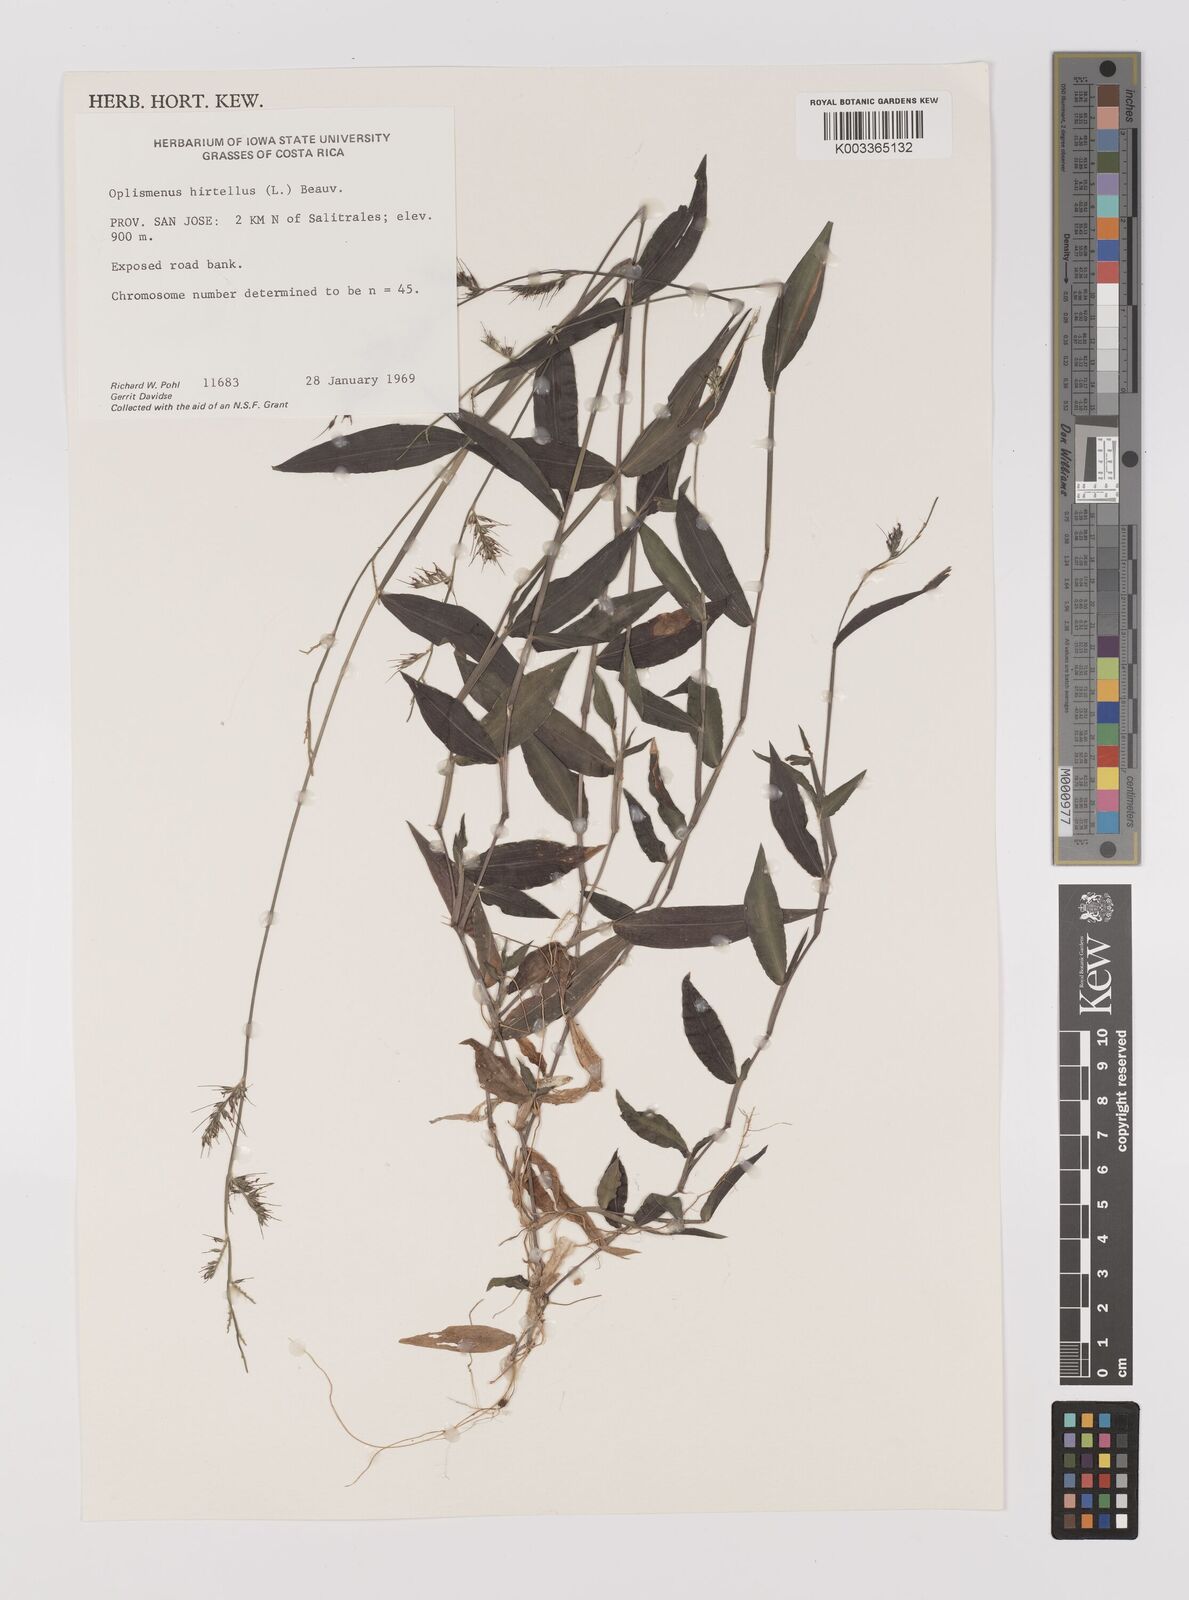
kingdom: Plantae
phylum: Tracheophyta
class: Liliopsida
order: Poales
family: Poaceae
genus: Oplismenus
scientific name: Oplismenus hirtellus
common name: Basketgrass
